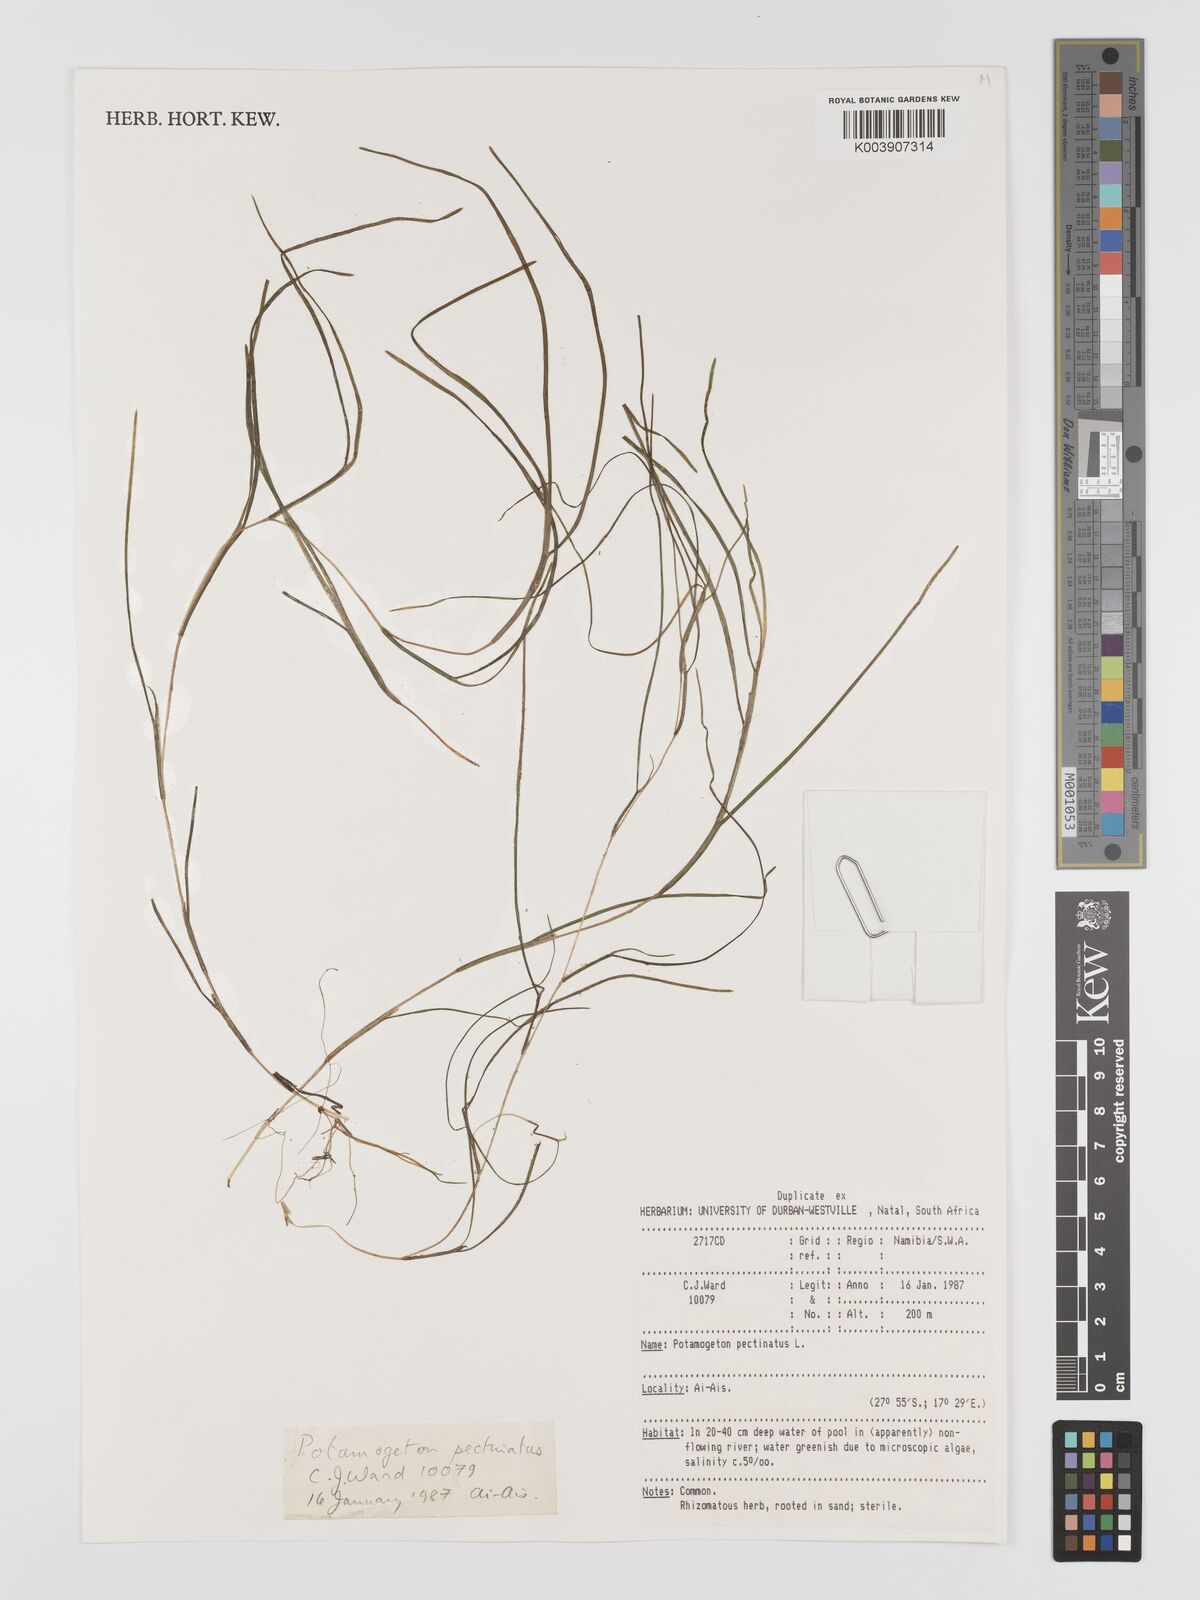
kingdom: Plantae
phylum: Tracheophyta
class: Liliopsida
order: Alismatales
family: Potamogetonaceae
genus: Stuckenia
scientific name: Stuckenia pectinata
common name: Sago pondweed
